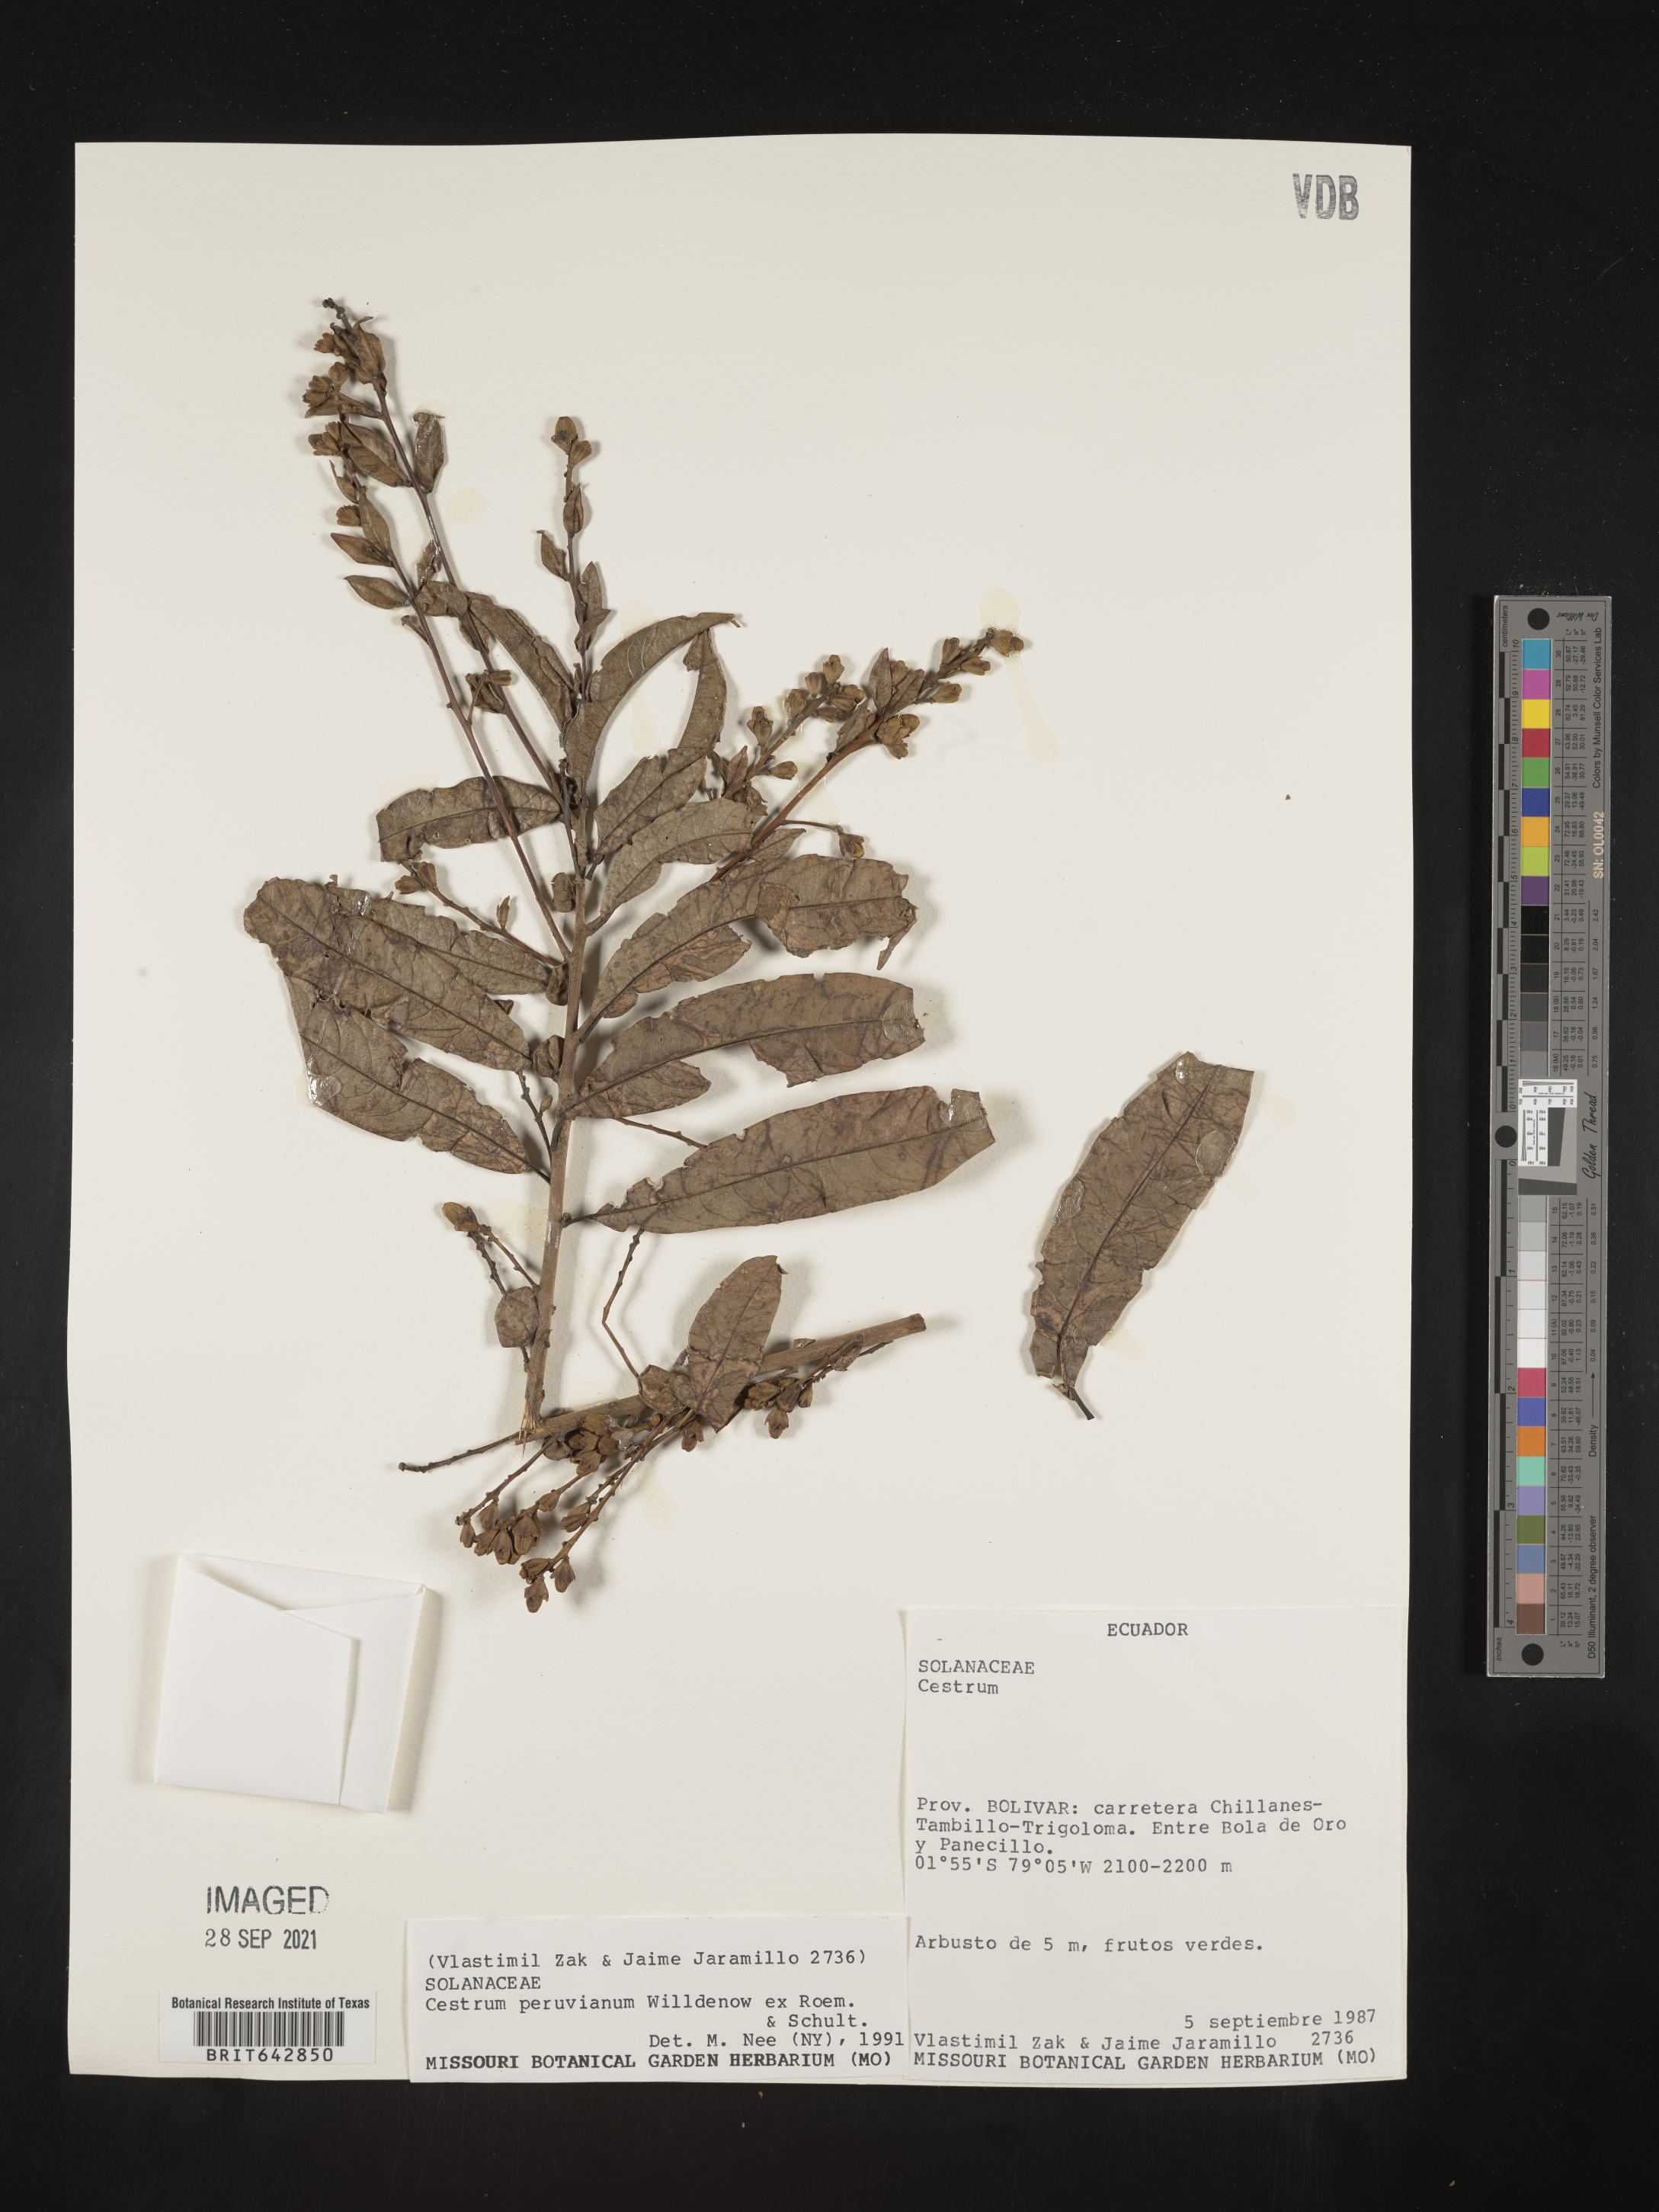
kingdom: Plantae
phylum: Tracheophyta
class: Magnoliopsida
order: Solanales
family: Solanaceae
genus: Cestrum
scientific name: Cestrum
